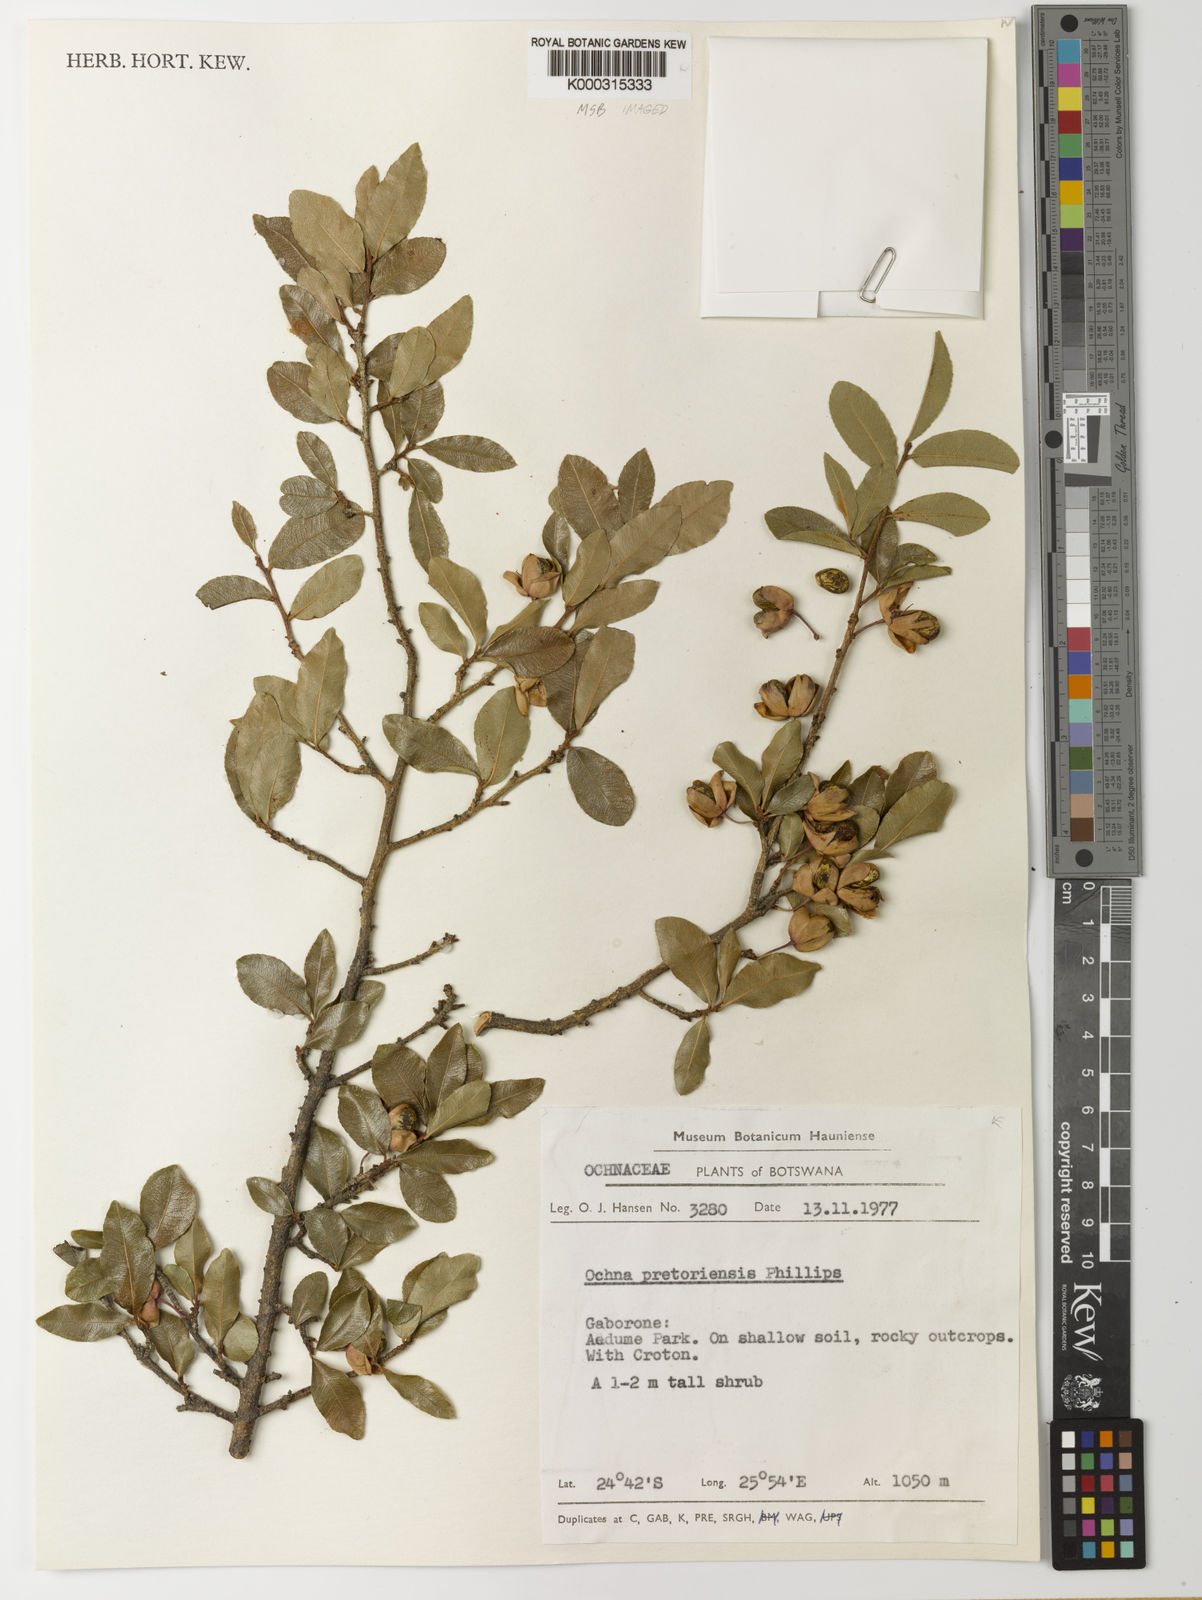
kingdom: Plantae
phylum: Tracheophyta
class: Magnoliopsida
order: Malpighiales
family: Ochnaceae
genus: Ochna
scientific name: Ochna pretoriensis
